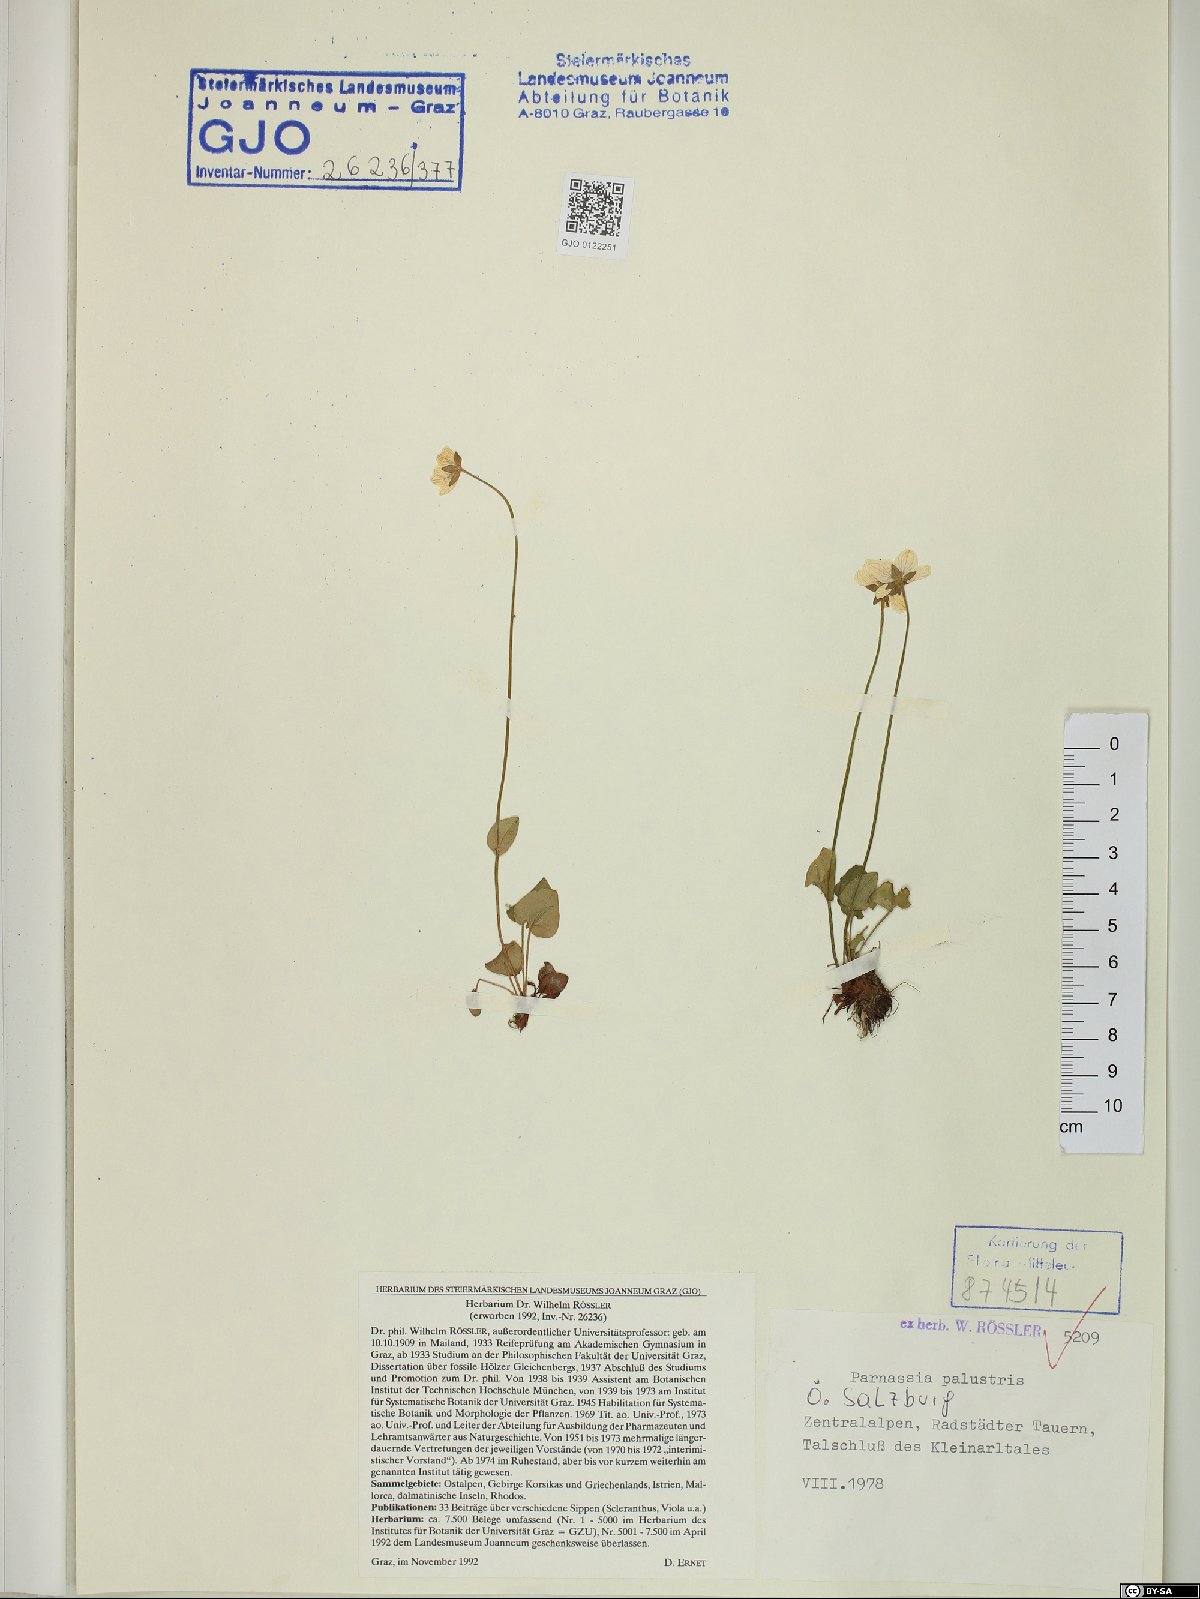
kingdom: Plantae
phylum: Tracheophyta
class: Magnoliopsida
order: Celastrales
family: Parnassiaceae
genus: Parnassia
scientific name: Parnassia palustris
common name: Grass-of-parnassus
